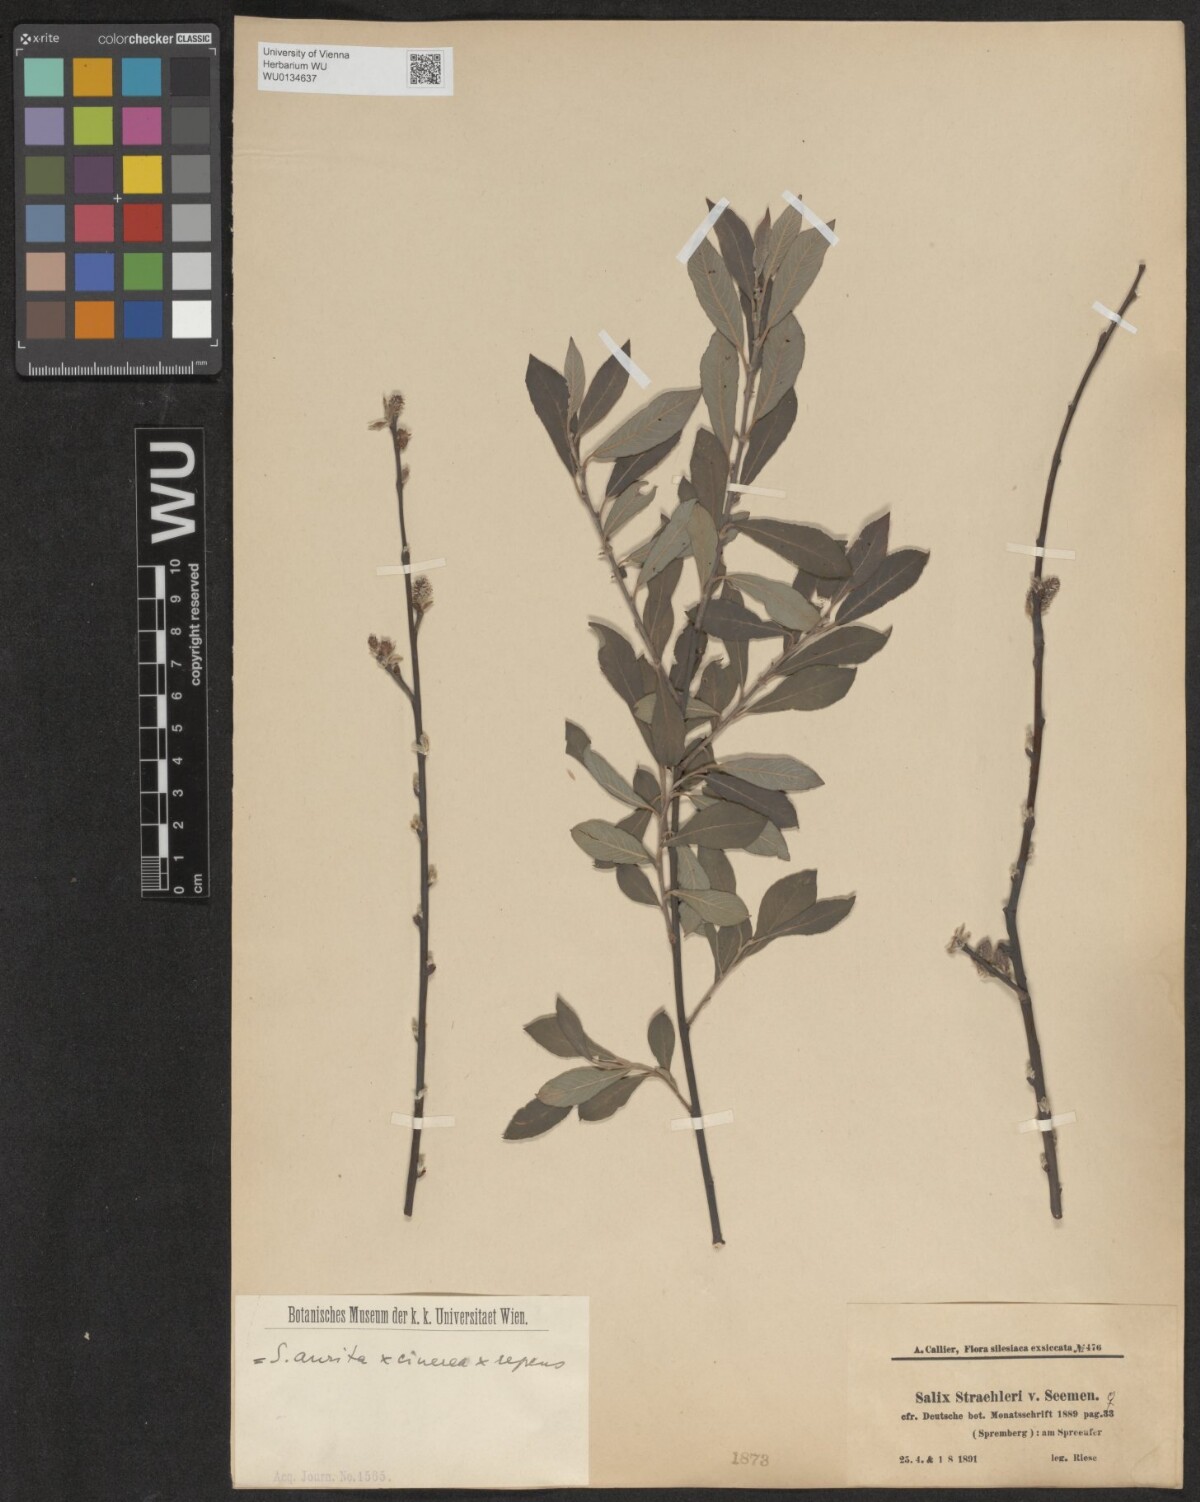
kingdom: Plantae
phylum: Tracheophyta
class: Magnoliopsida
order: Malpighiales
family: Salicaceae
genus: Salix
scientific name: Salix
